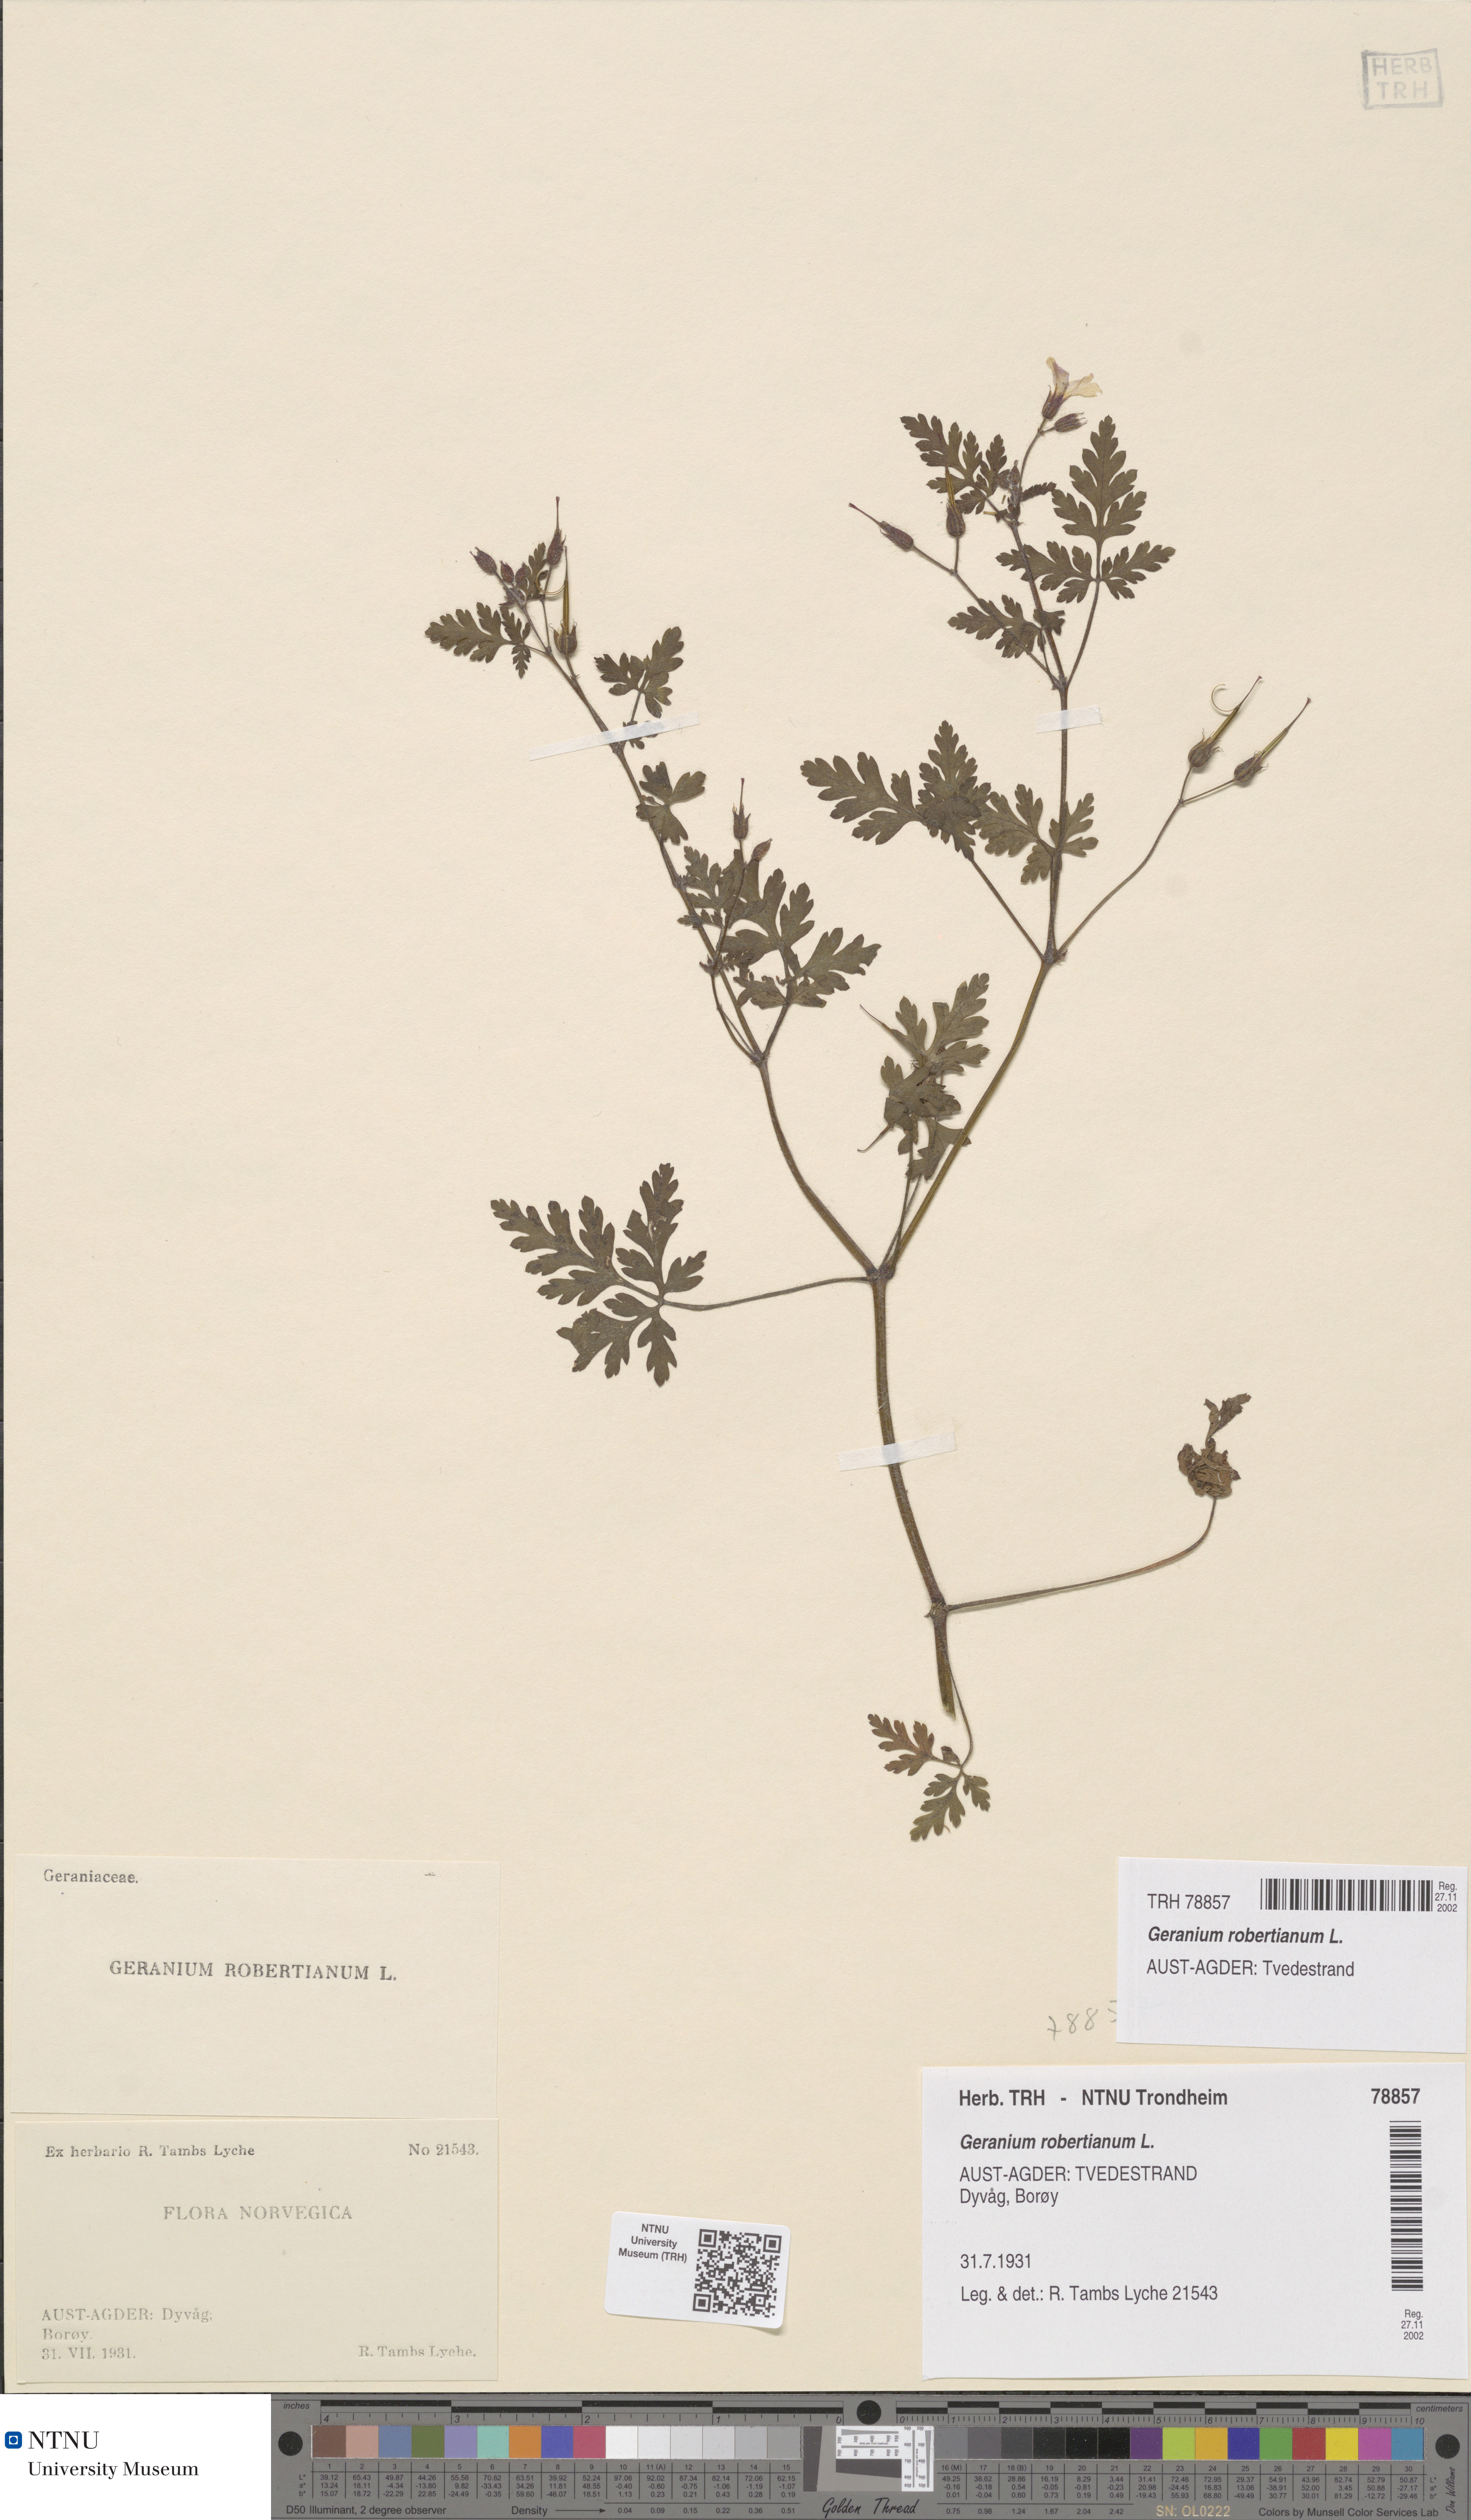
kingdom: Plantae
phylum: Tracheophyta
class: Magnoliopsida
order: Geraniales
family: Geraniaceae
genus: Geranium
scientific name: Geranium robertianum
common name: Herb-robert
